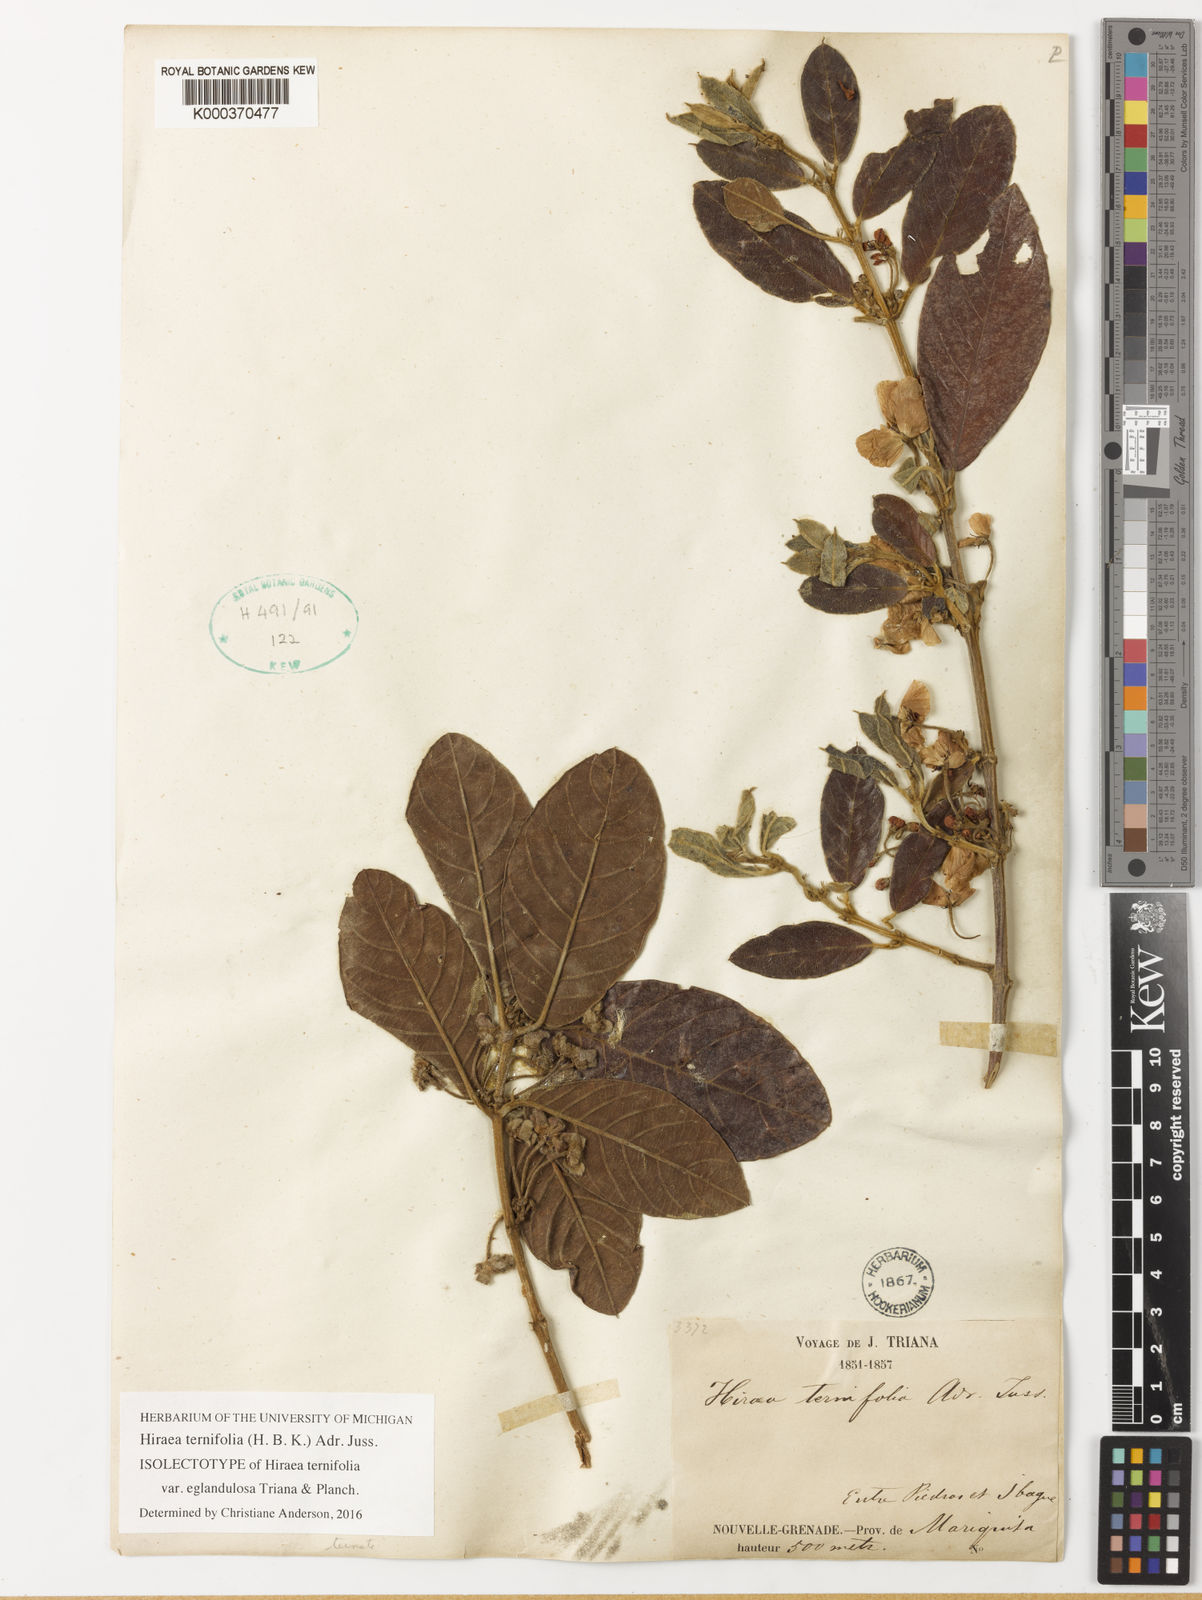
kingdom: Plantae
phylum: Tracheophyta
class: Magnoliopsida
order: Malpighiales
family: Malpighiaceae
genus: Hiraea
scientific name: Hiraea ternifolia
